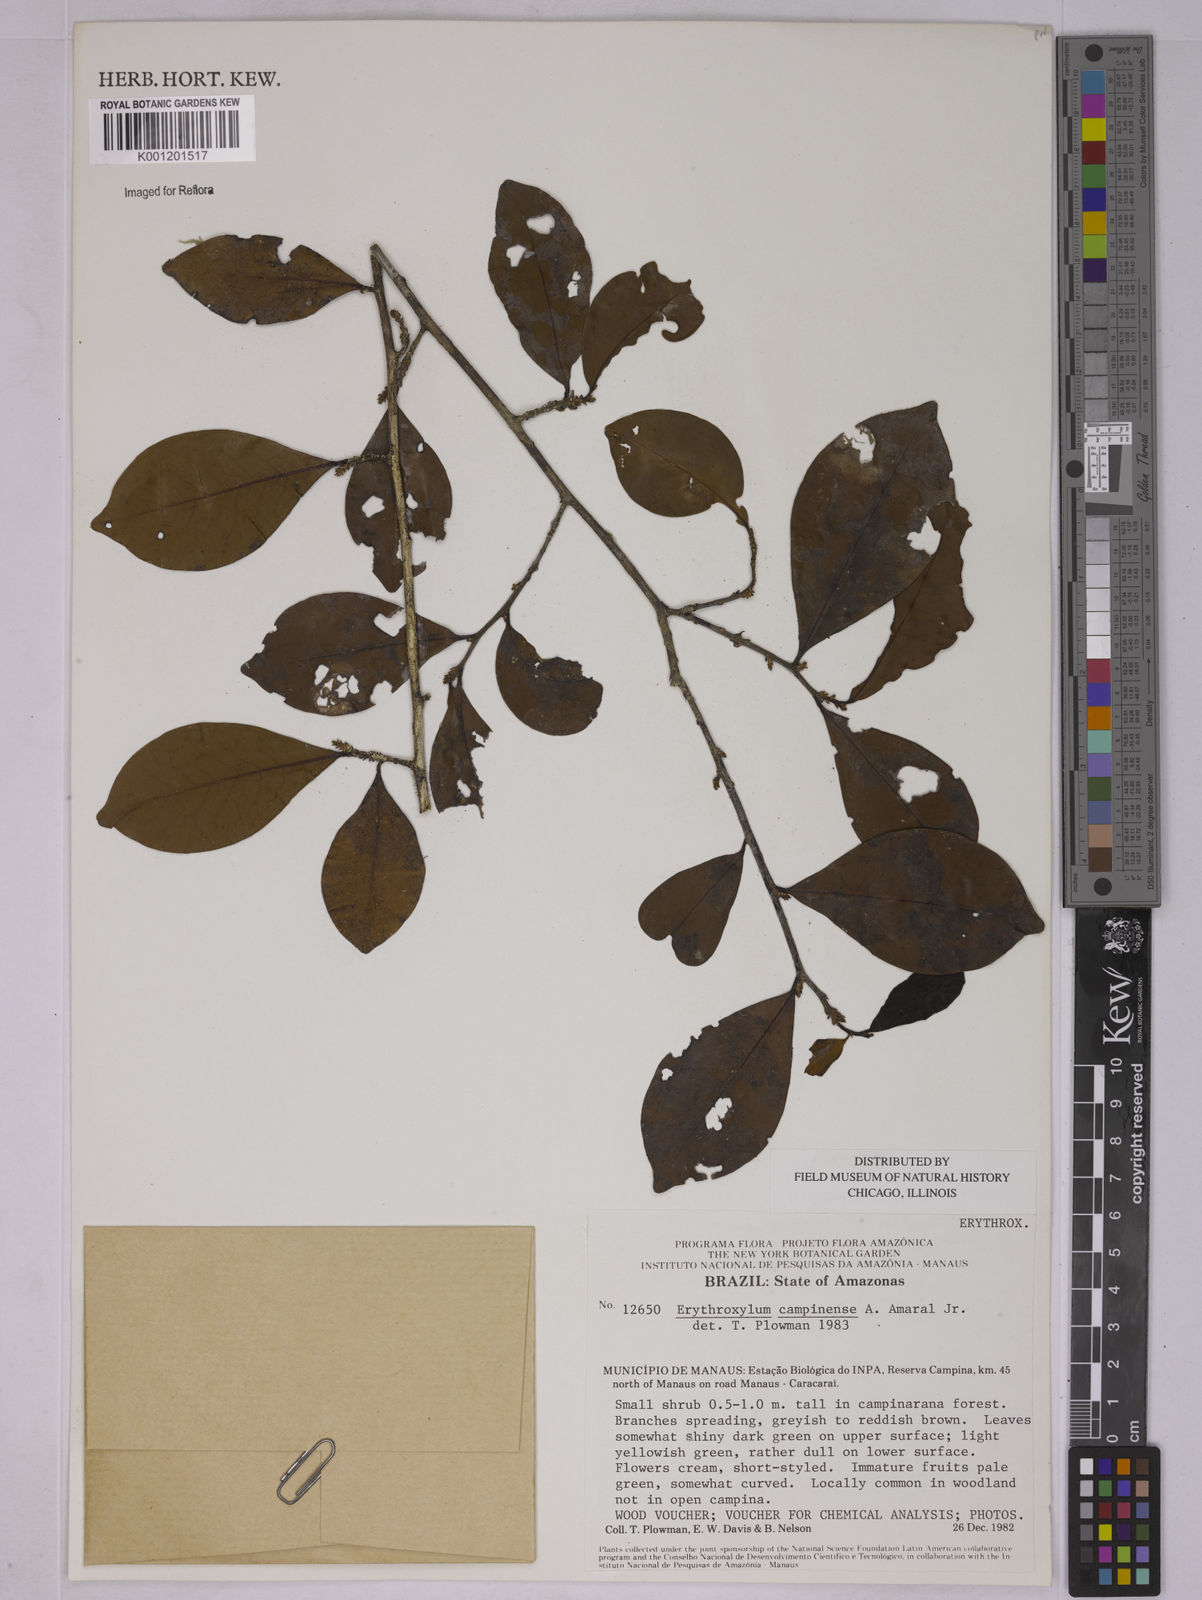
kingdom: Plantae
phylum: Tracheophyta
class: Magnoliopsida
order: Malpighiales
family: Erythroxylaceae
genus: Erythroxylum
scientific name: Erythroxylum campinense
